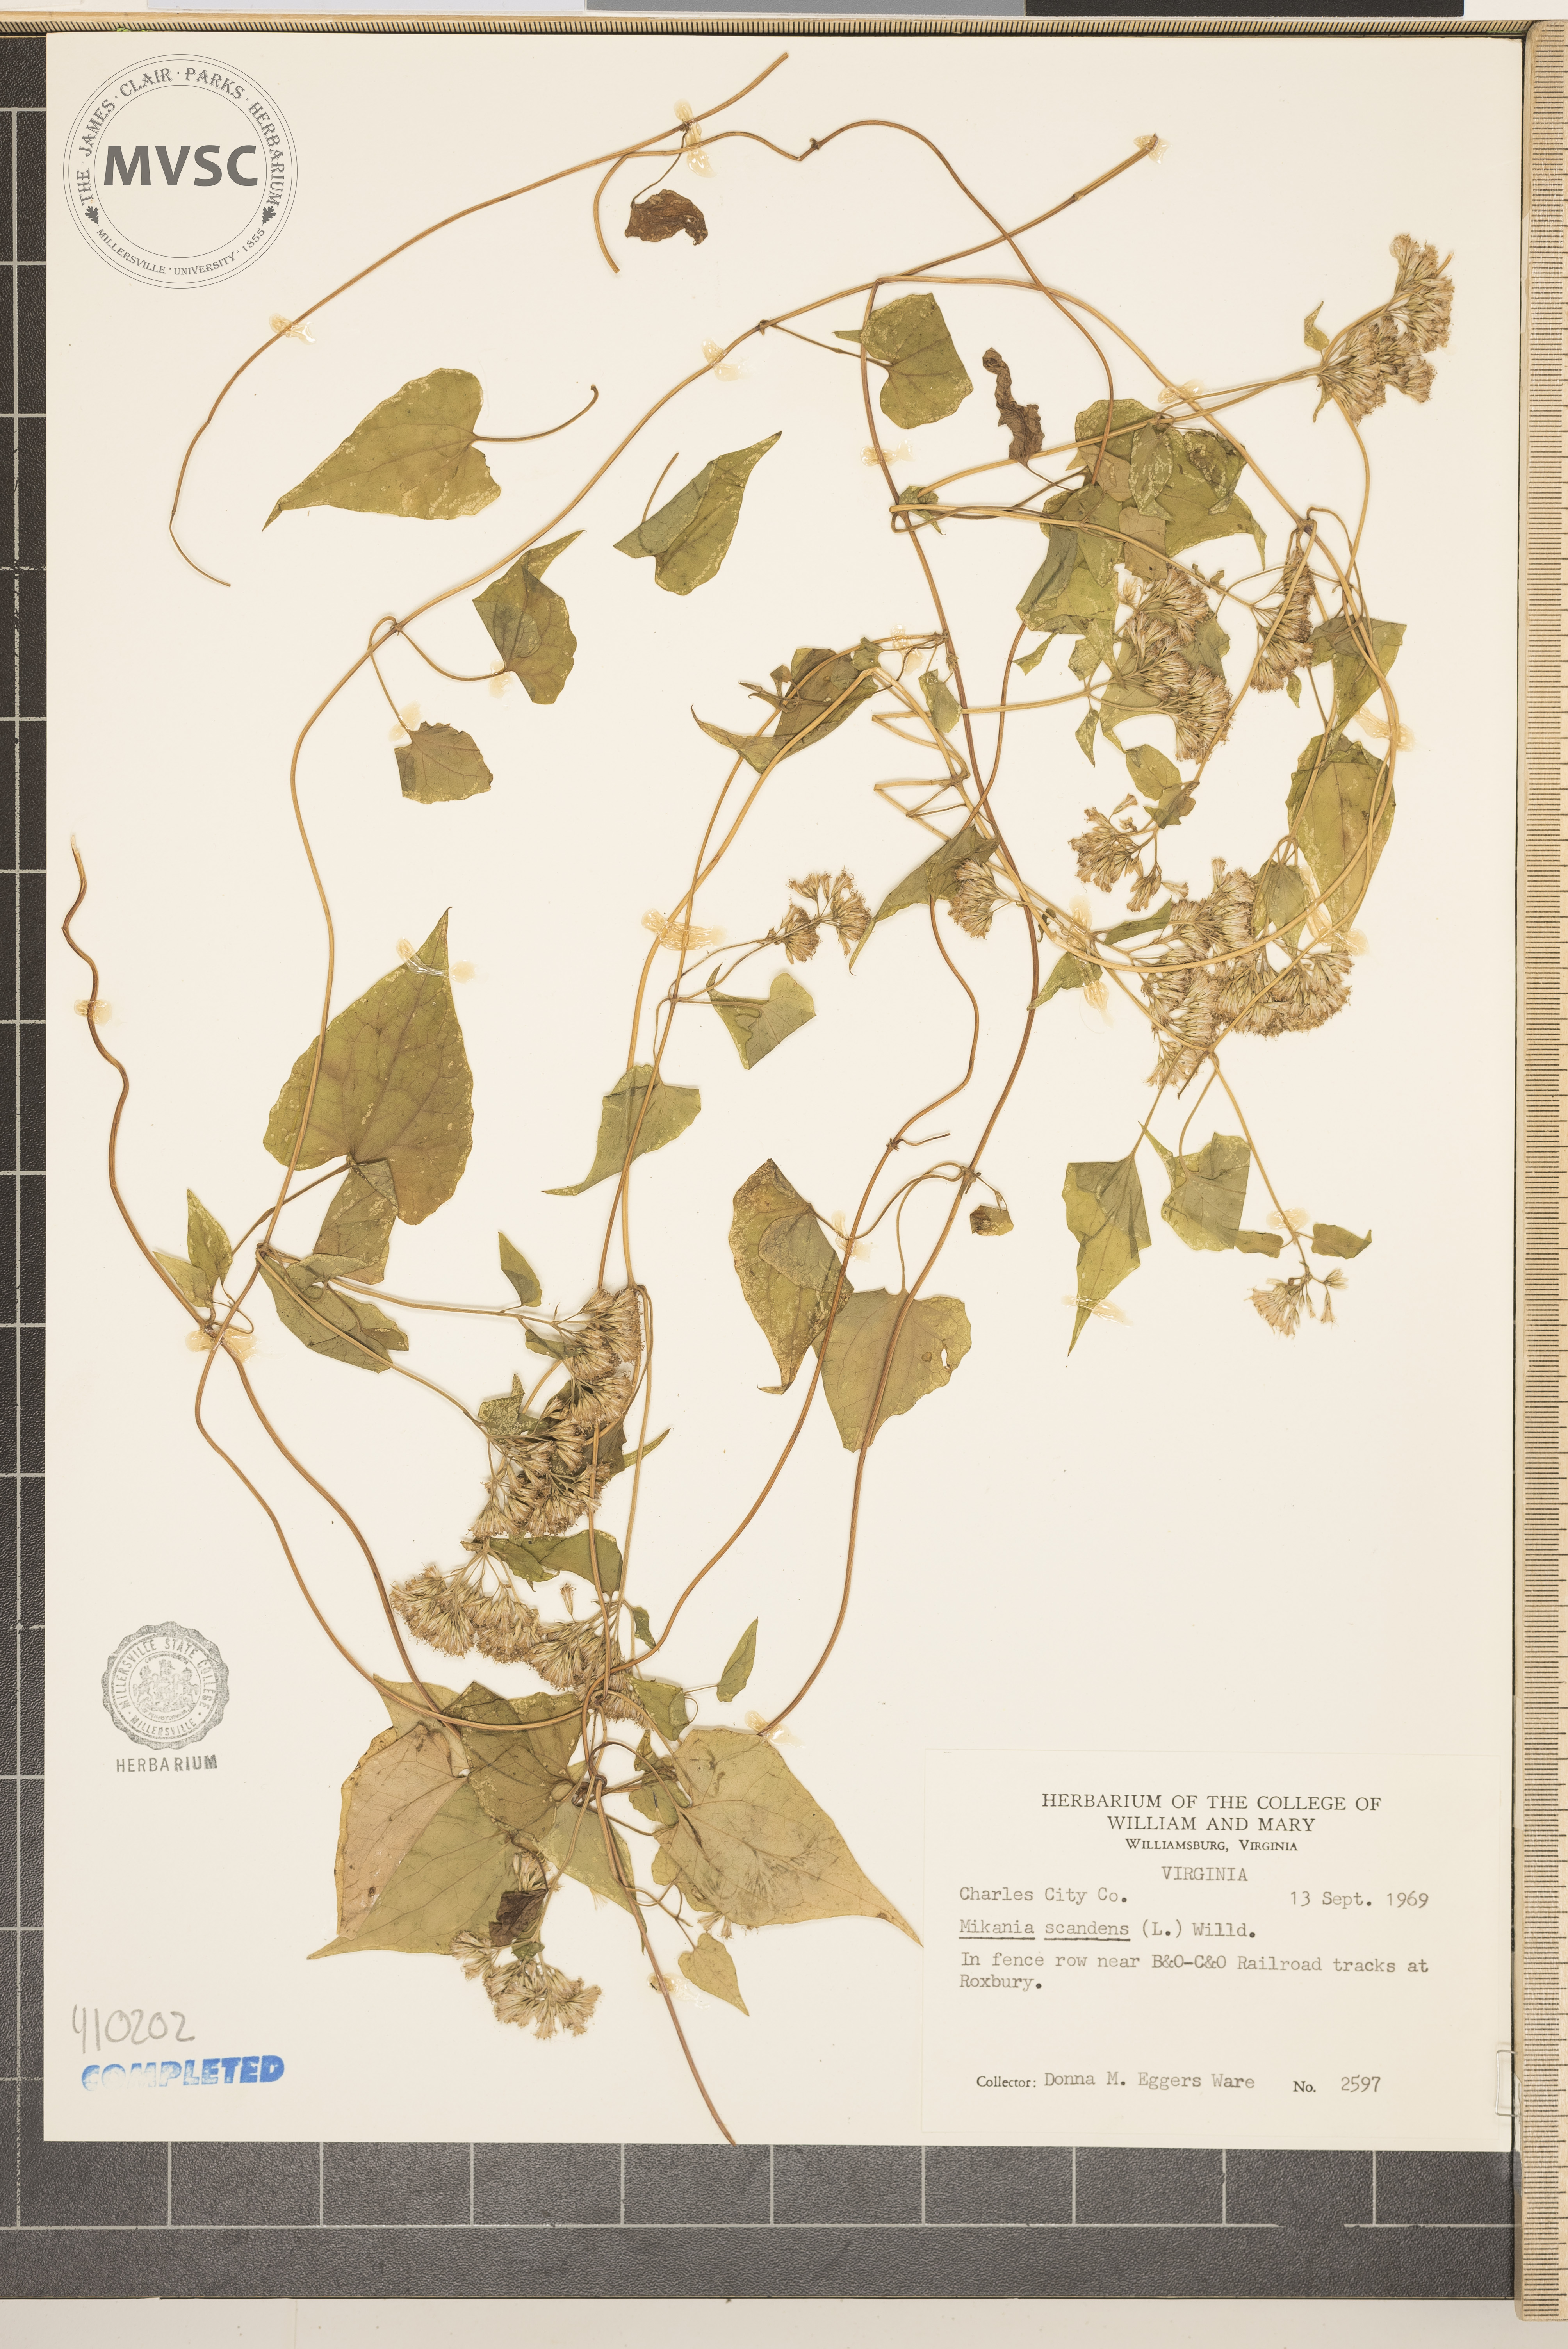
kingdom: Plantae
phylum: Tracheophyta
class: Magnoliopsida
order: Asterales
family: Asteraceae
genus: Mikania
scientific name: Mikania scandens
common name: Climbing hempvine
